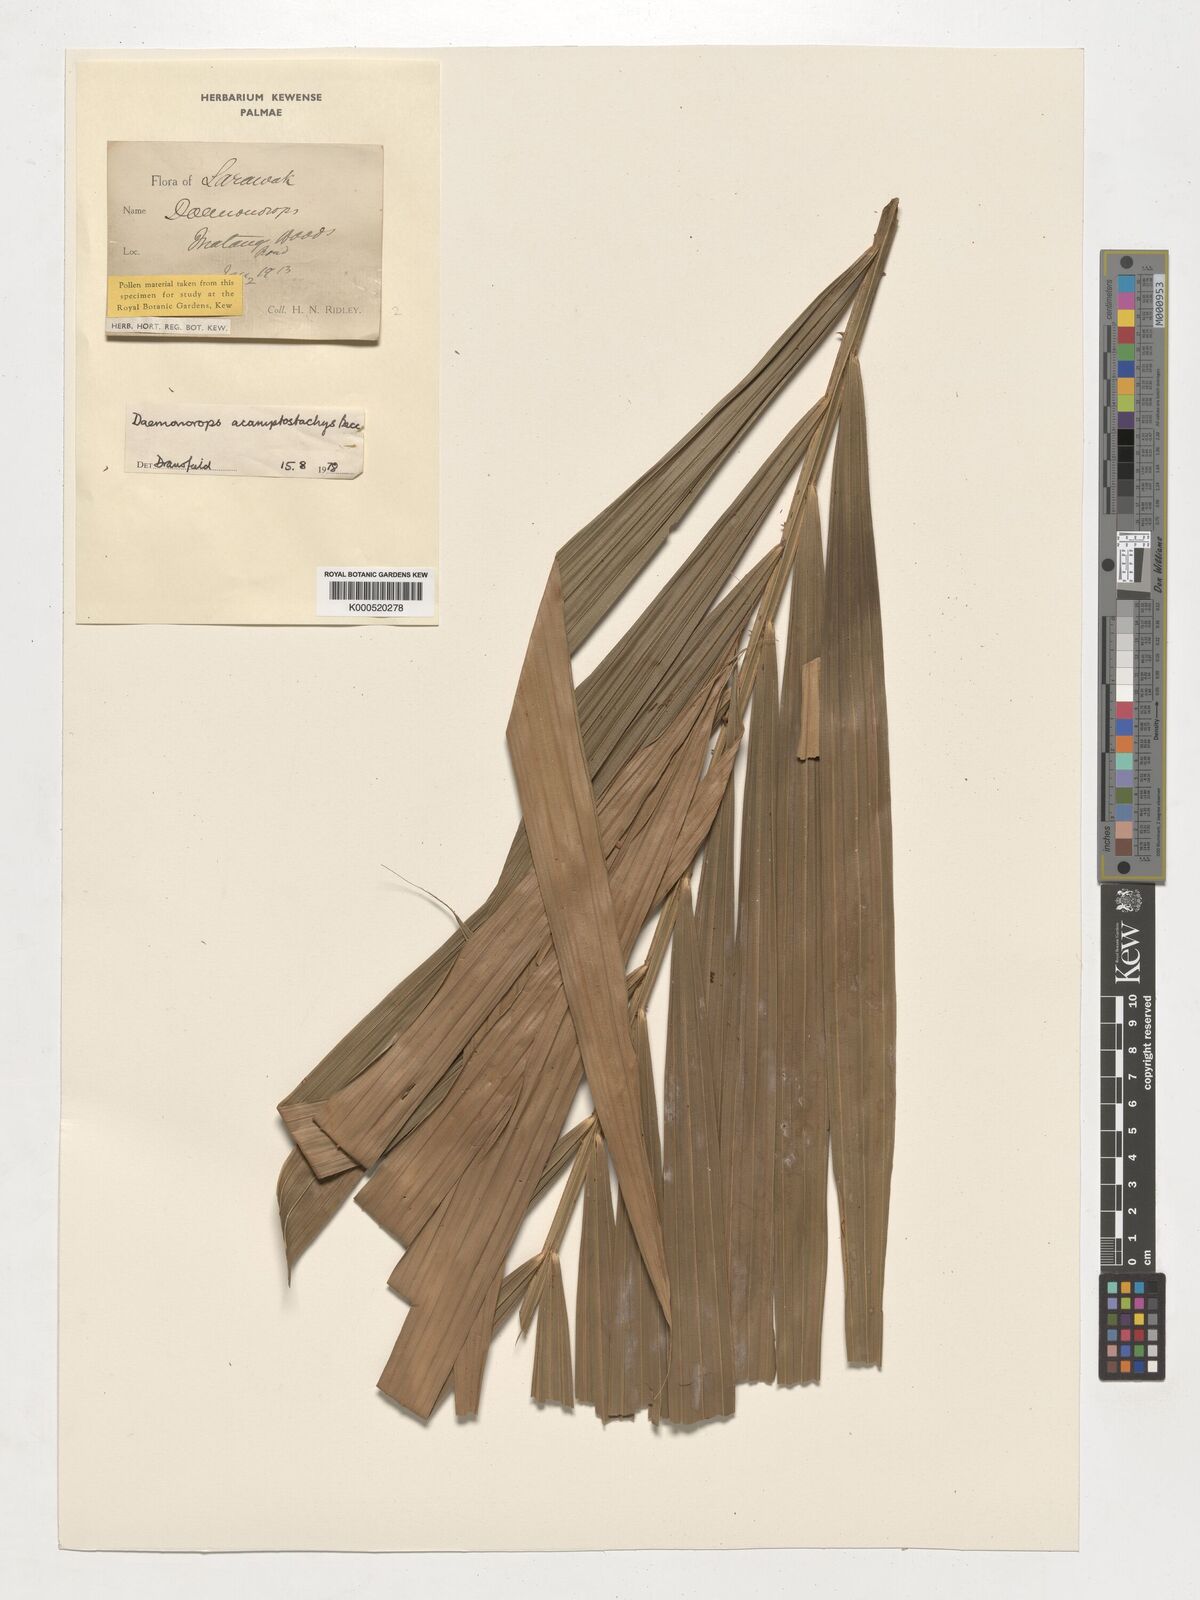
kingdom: Plantae
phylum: Tracheophyta
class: Liliopsida
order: Arecales
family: Arecaceae
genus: Calamus
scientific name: Calamus acamptostachys
